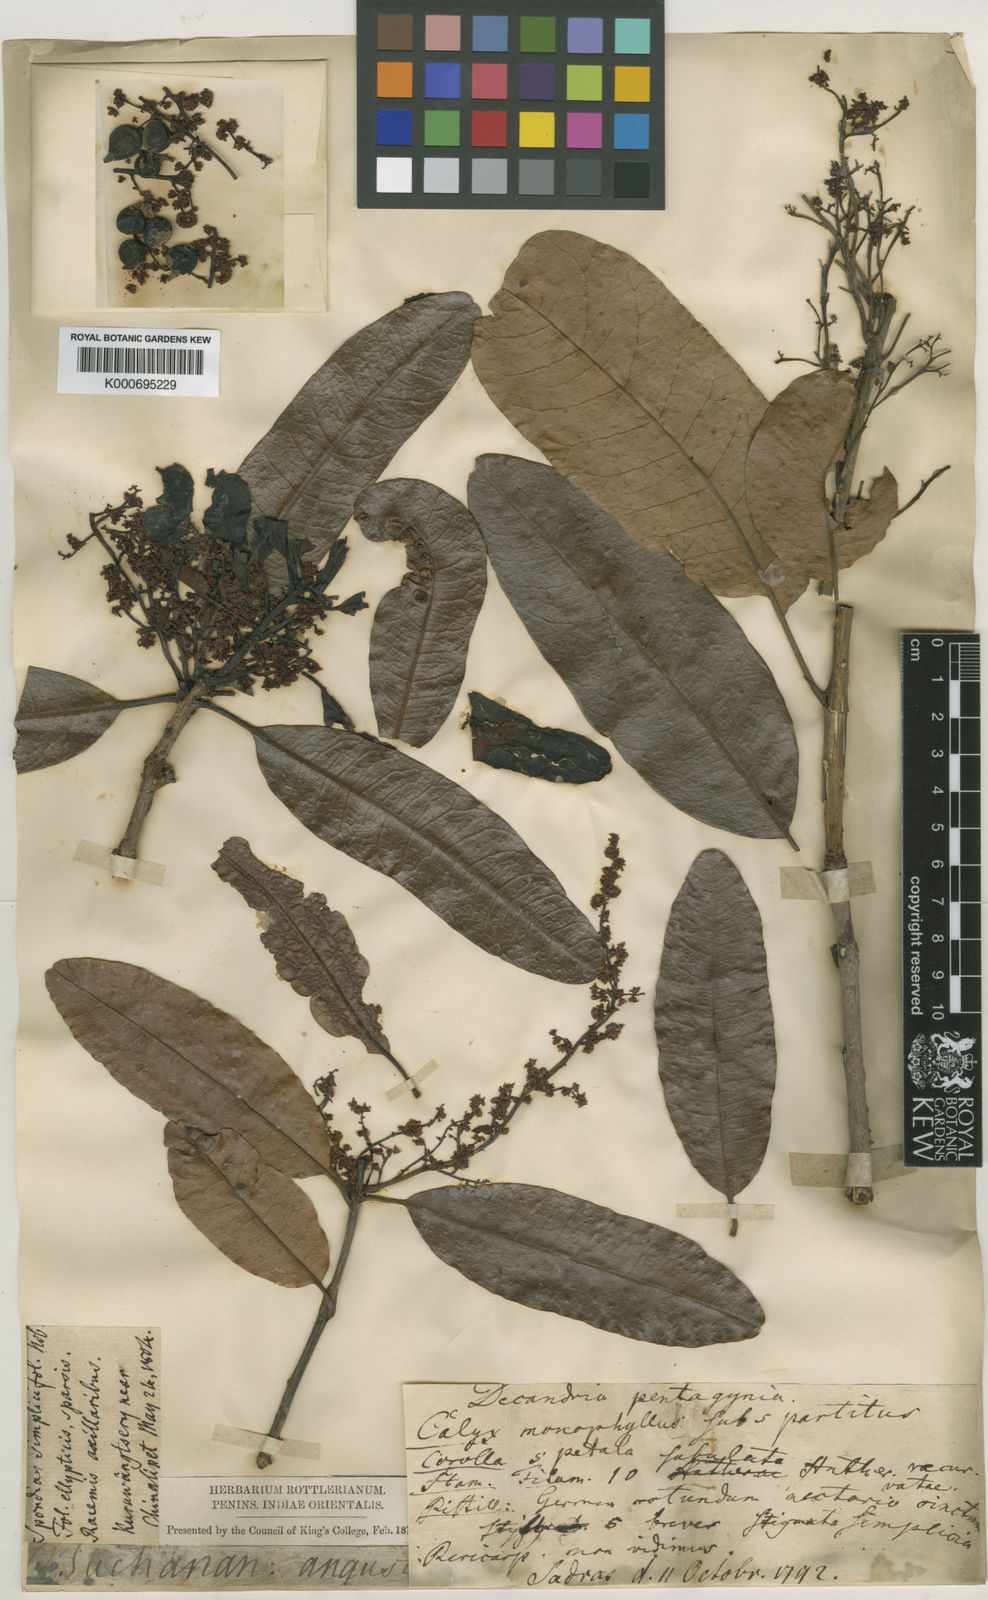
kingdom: Plantae
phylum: Tracheophyta
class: Magnoliopsida
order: Sapindales
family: Anacardiaceae
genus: Buchanania
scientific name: Buchanania axillaris
